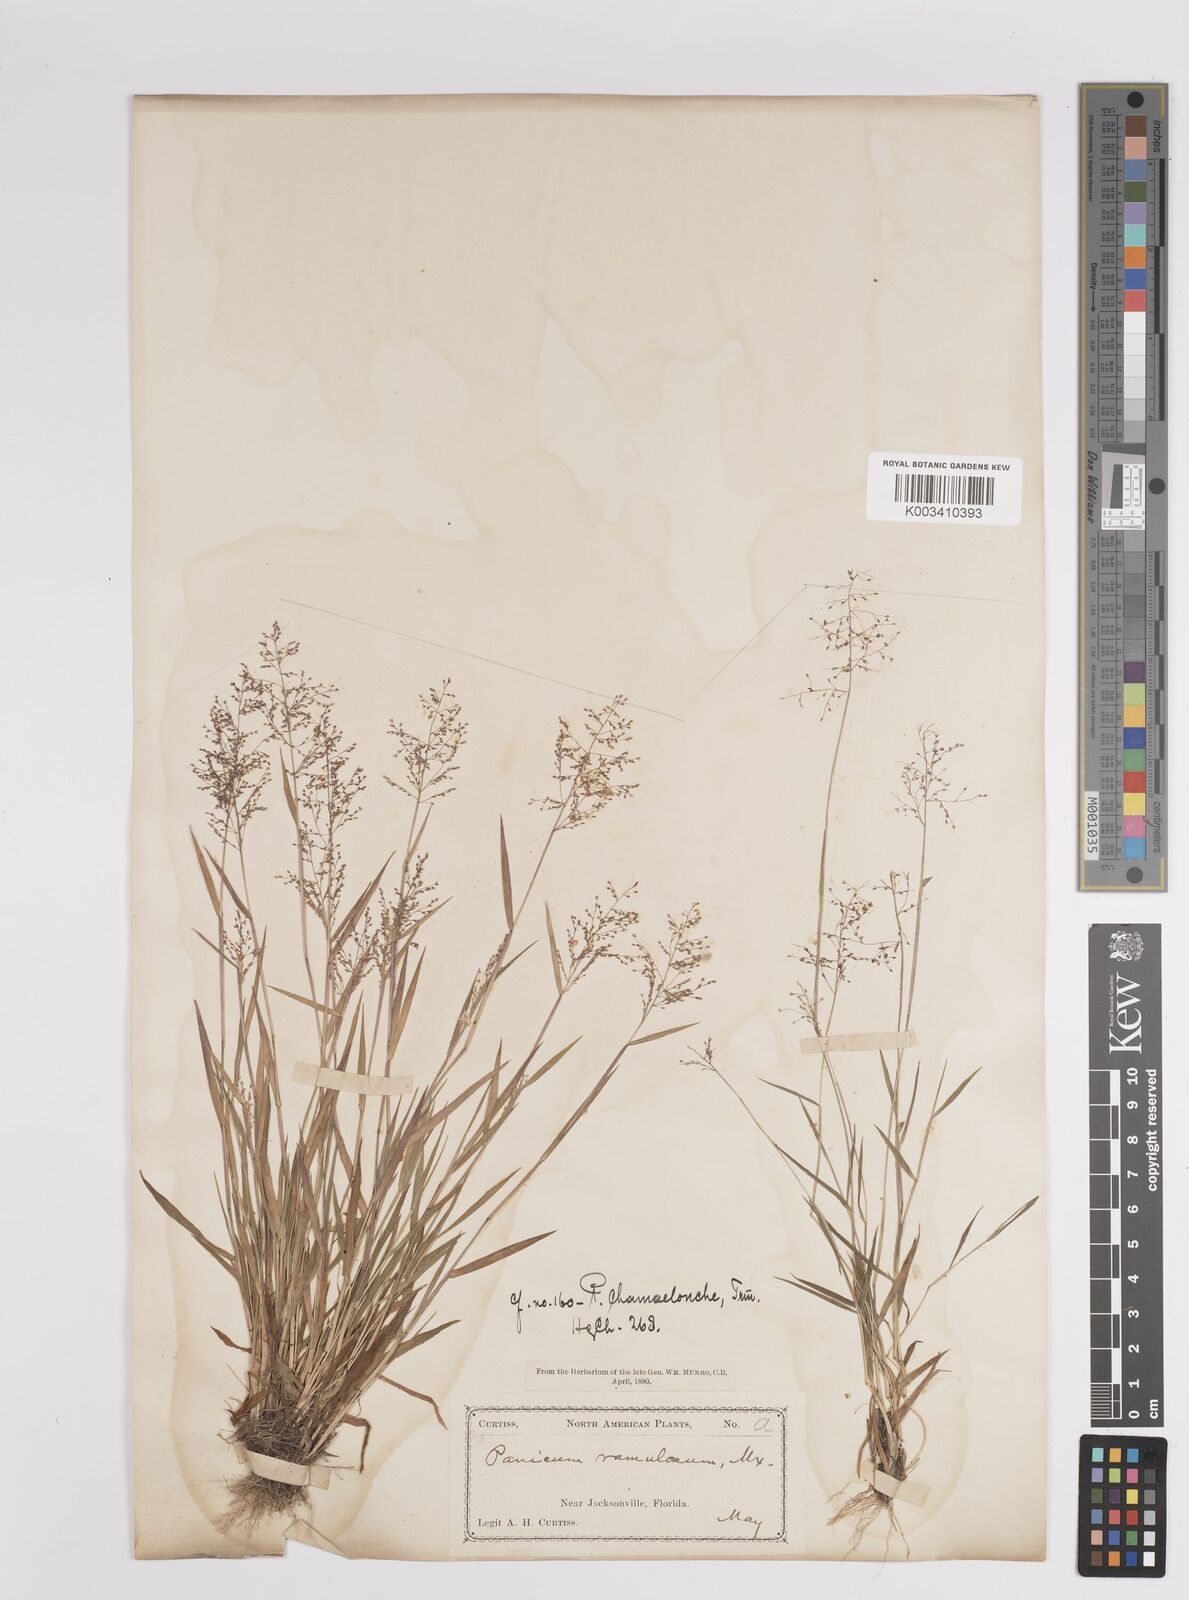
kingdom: Plantae
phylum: Tracheophyta
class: Liliopsida
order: Poales
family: Poaceae
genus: Dichanthelium
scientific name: Dichanthelium chamaelonche
